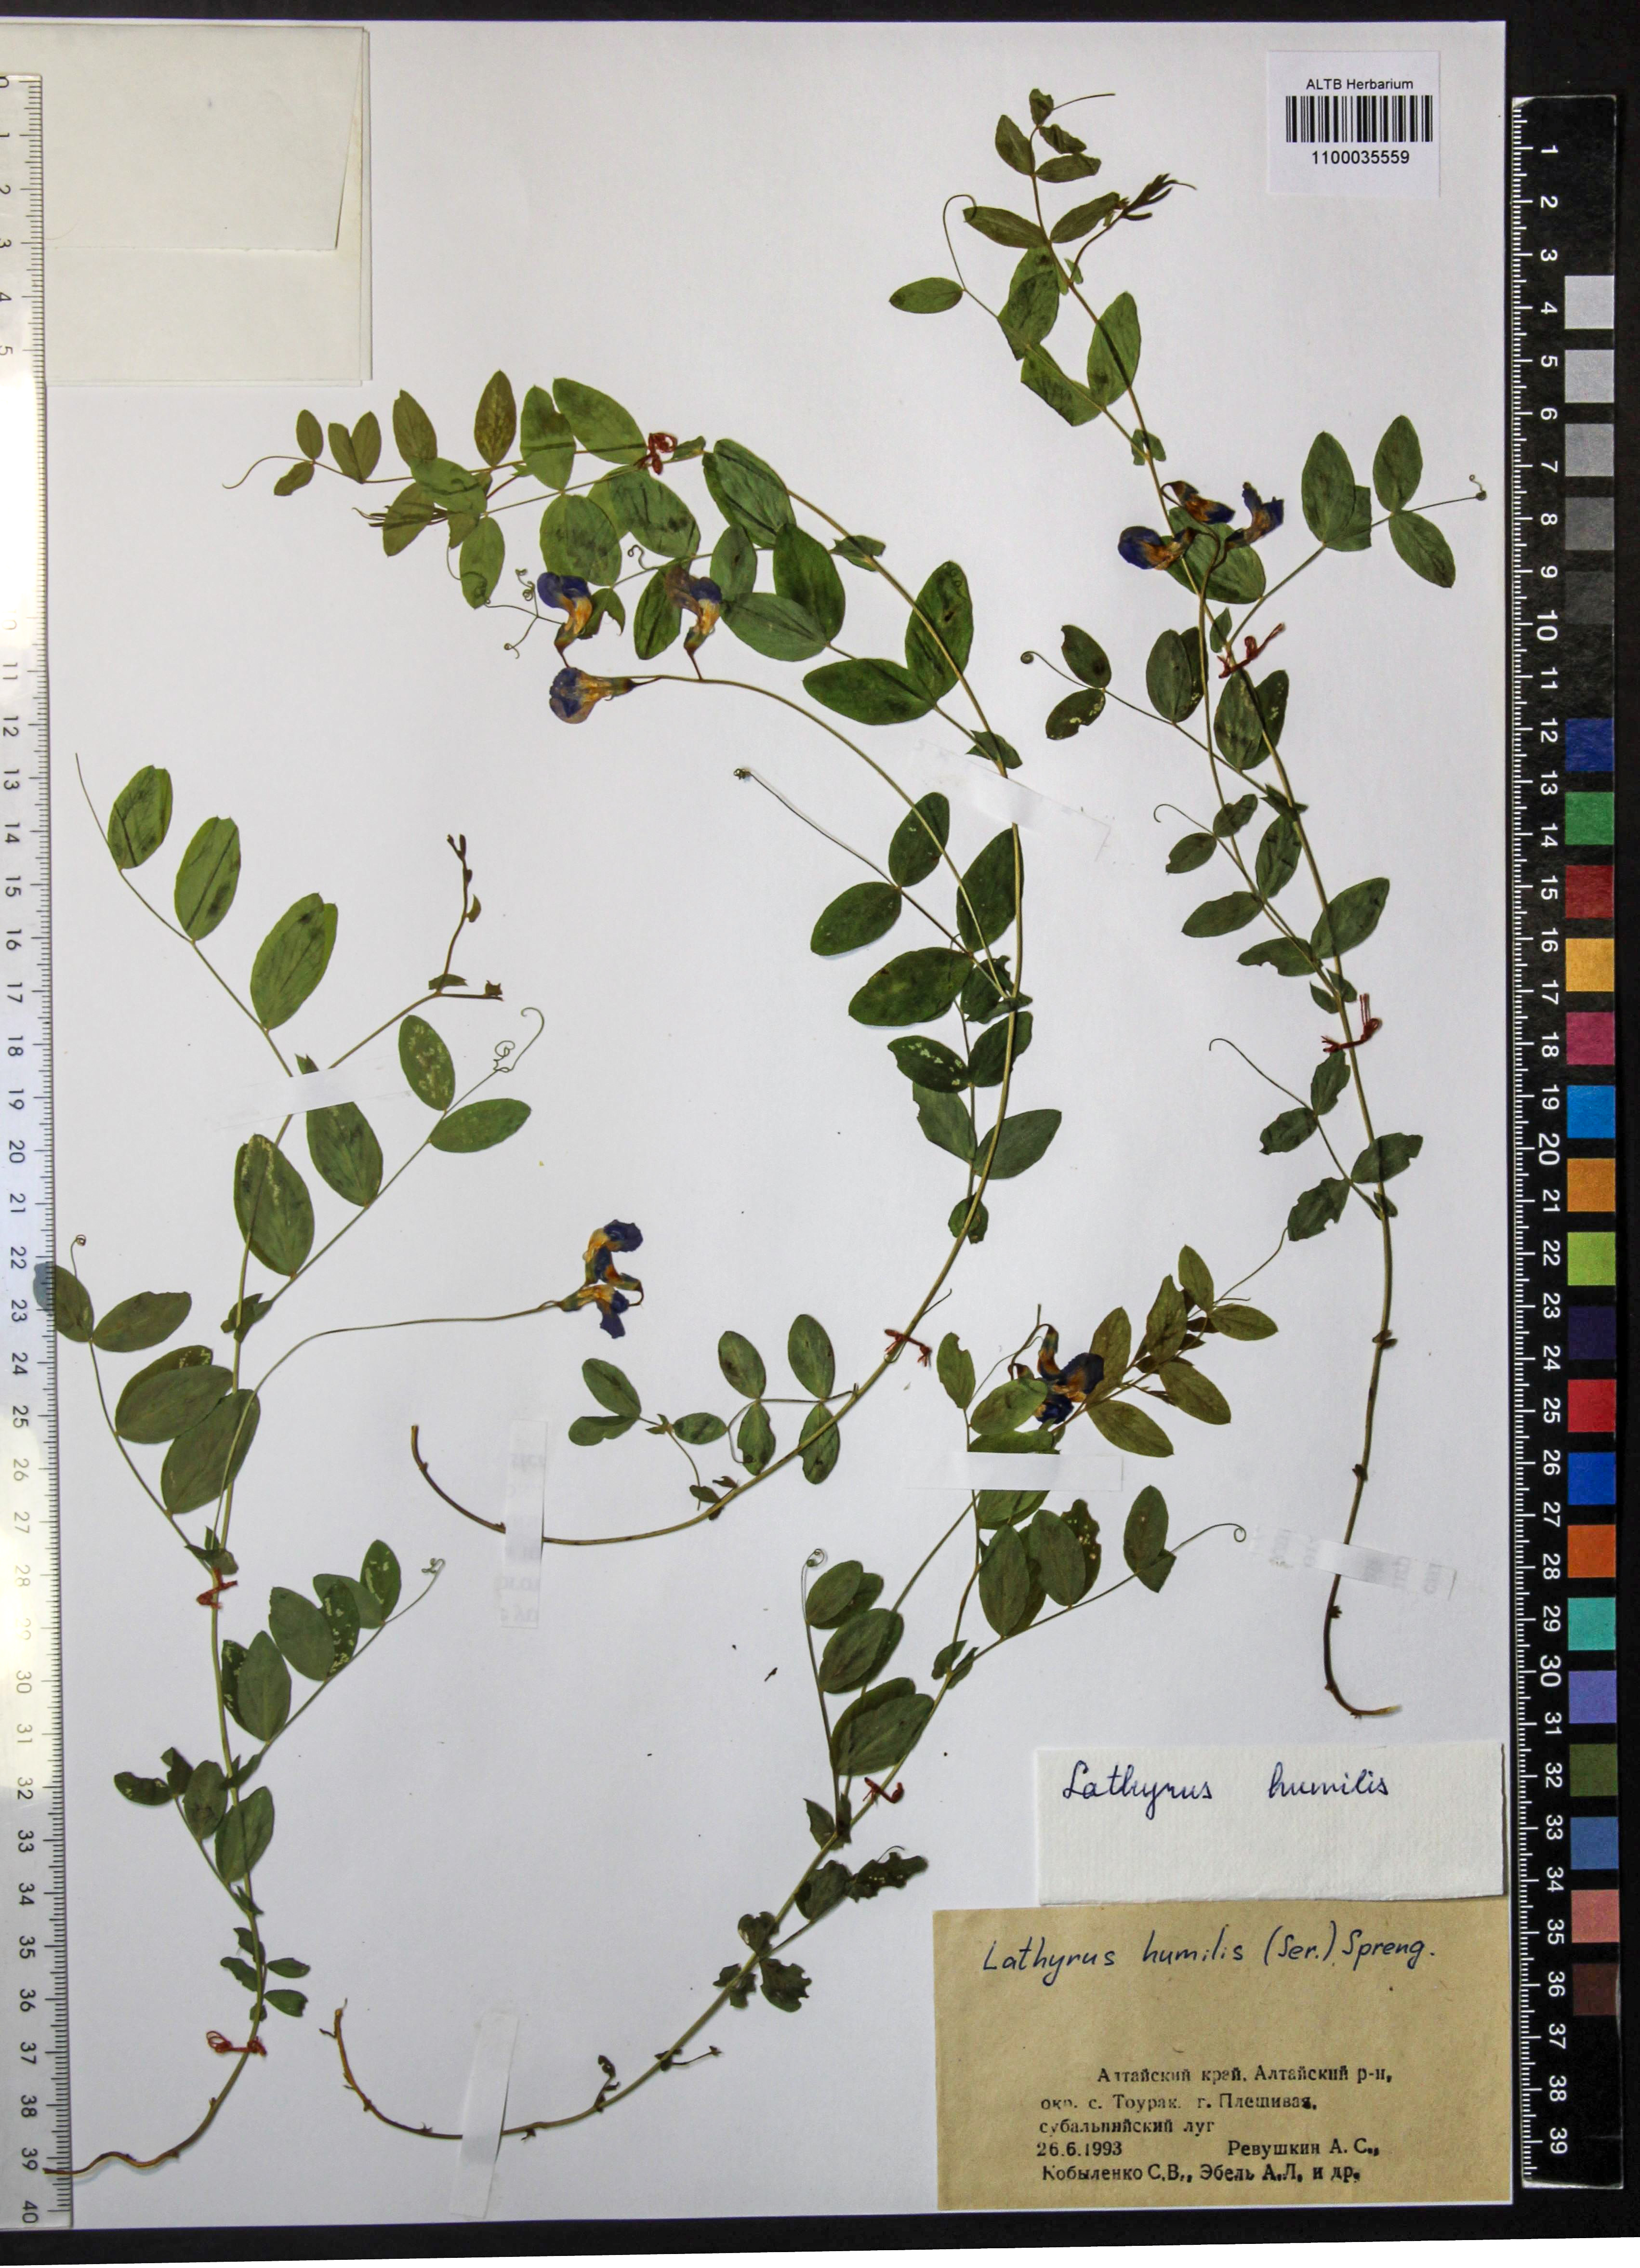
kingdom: Plantae
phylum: Tracheophyta
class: Magnoliopsida
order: Fabales
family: Fabaceae
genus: Lathyrus
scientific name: Lathyrus humilis
